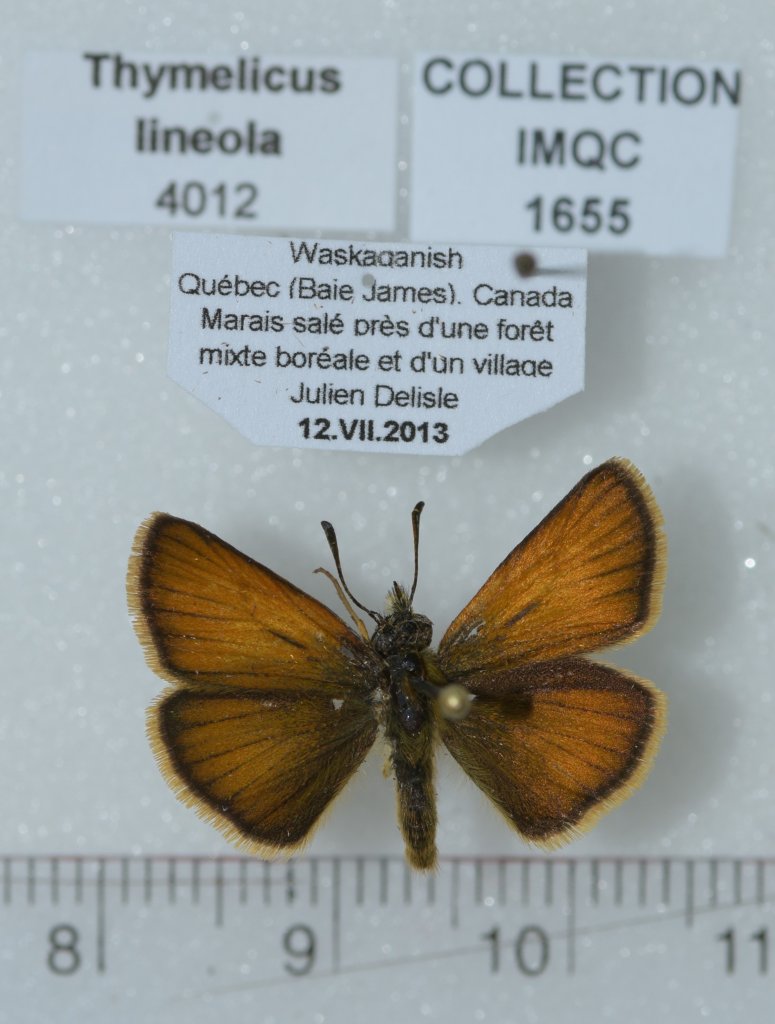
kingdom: Animalia
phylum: Arthropoda
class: Insecta
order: Lepidoptera
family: Hesperiidae
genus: Thymelicus
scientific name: Thymelicus lineola
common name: European Skipper
